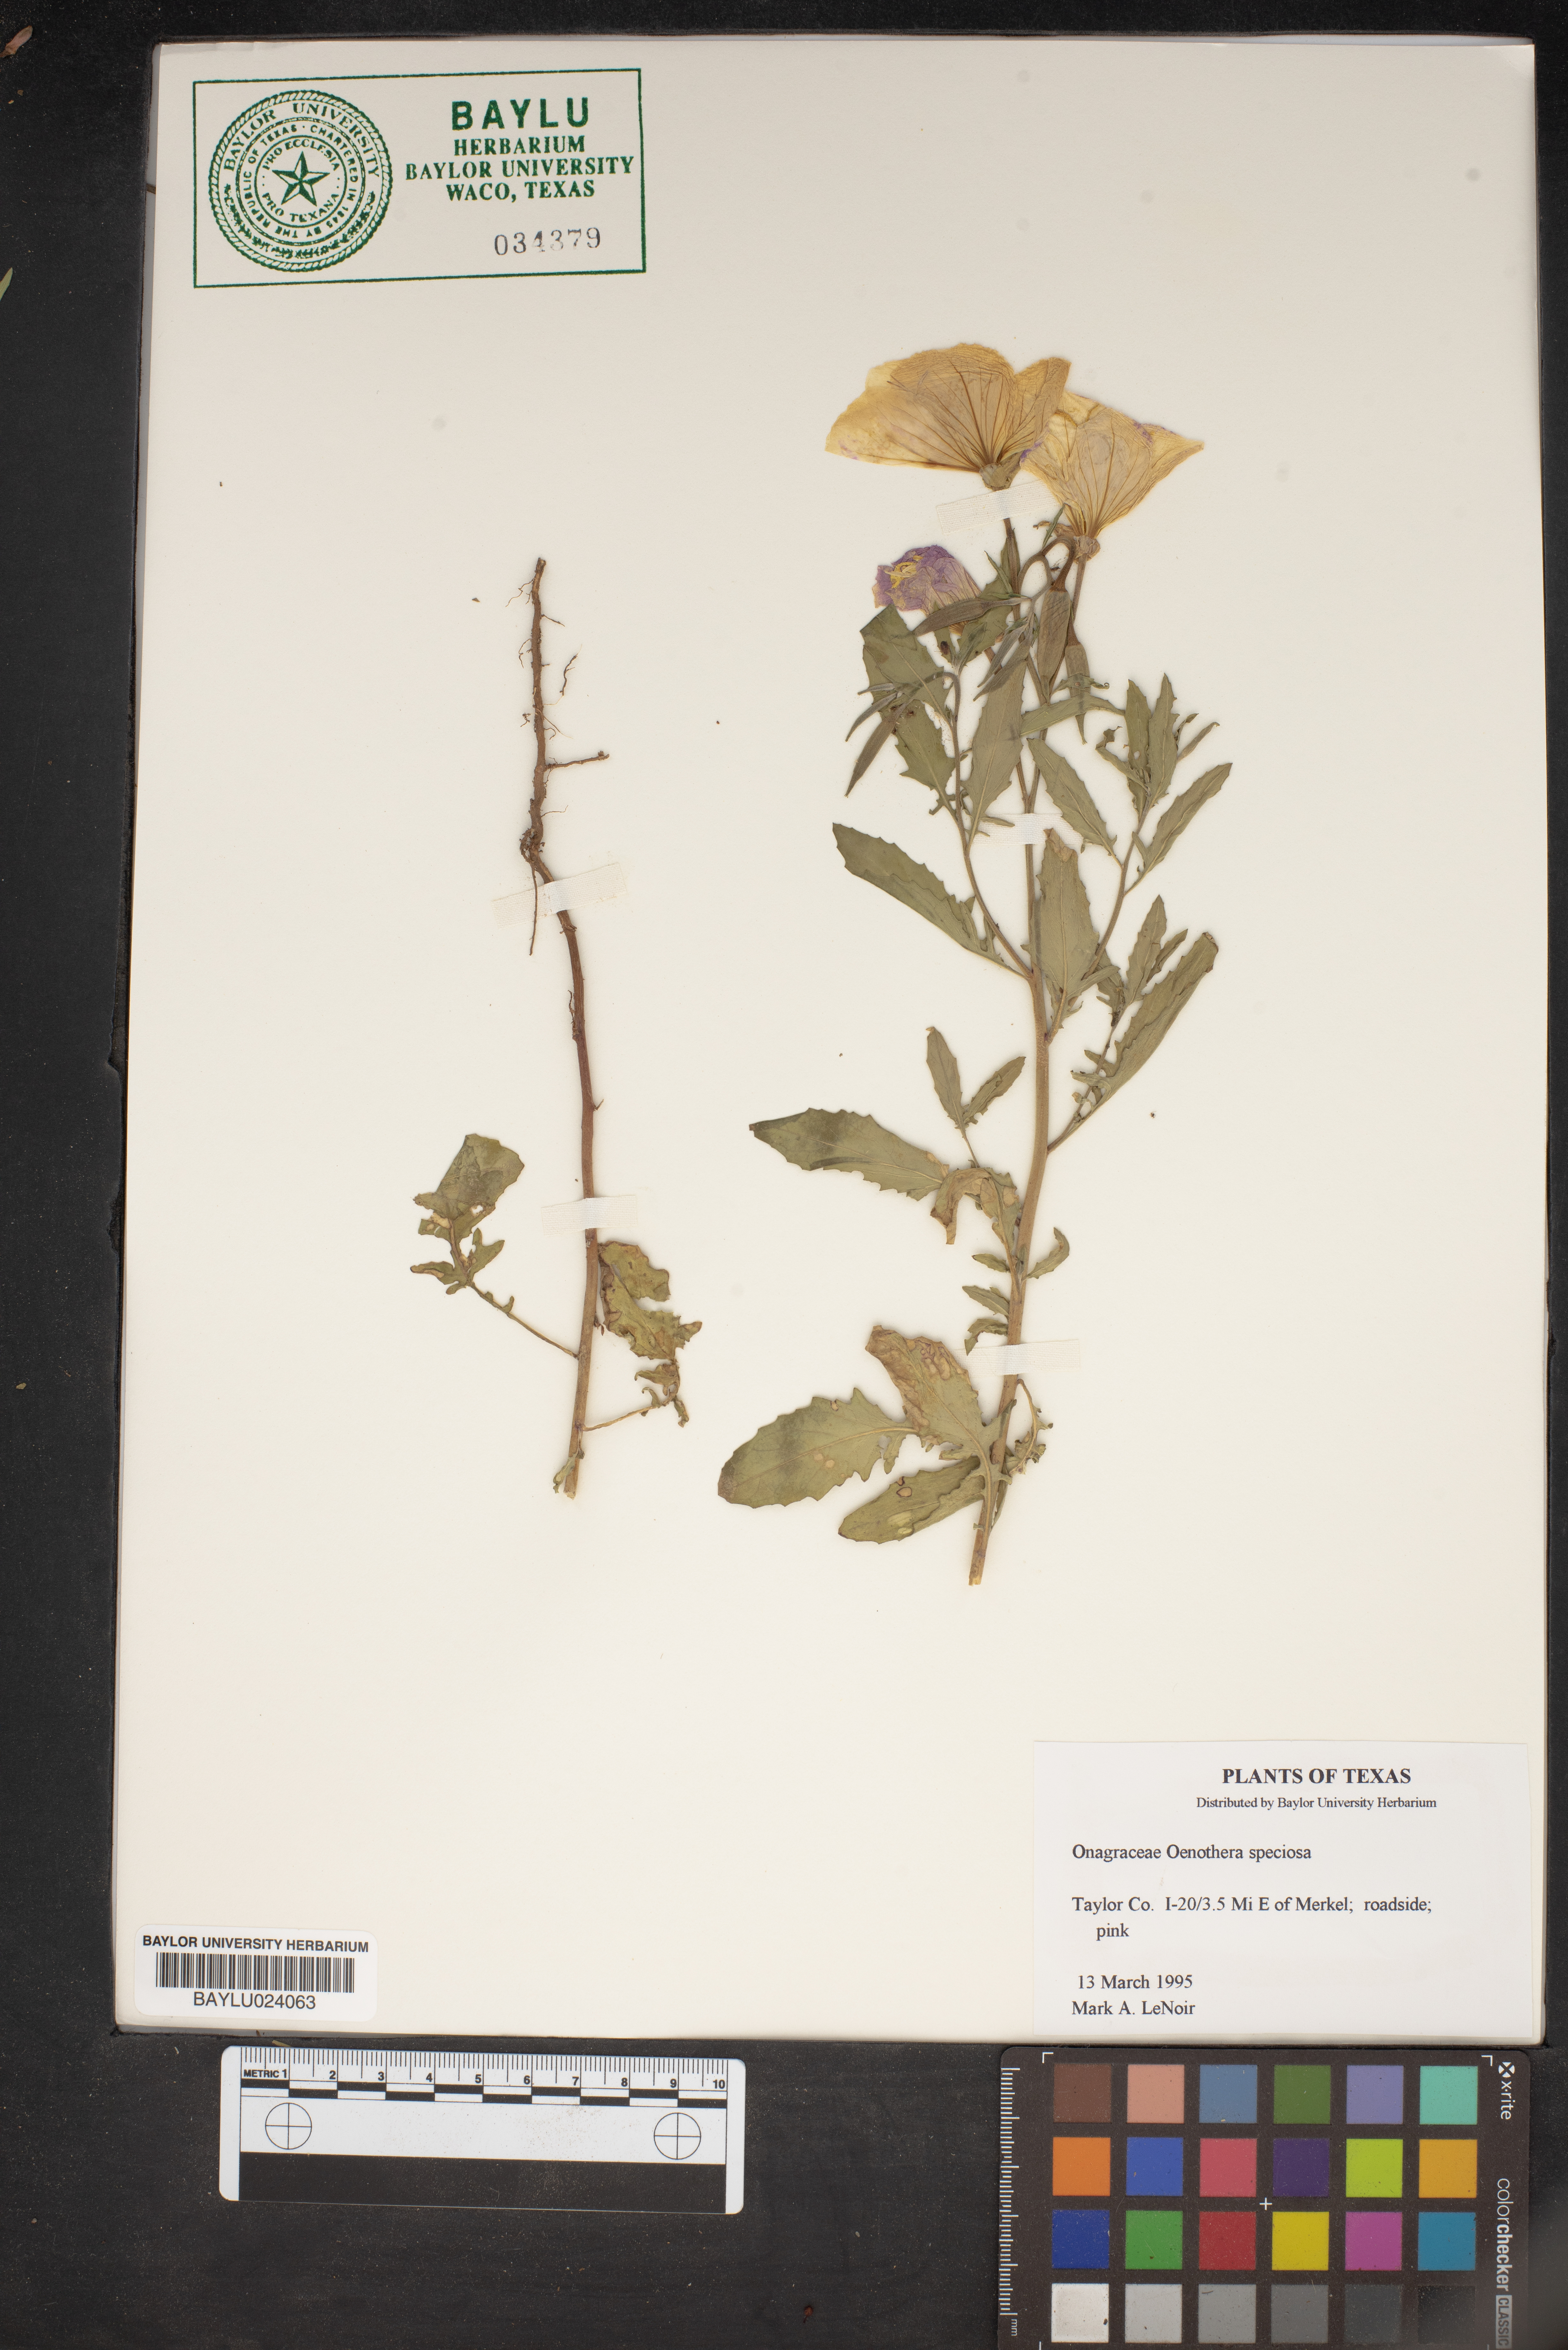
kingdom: Plantae
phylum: Tracheophyta
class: Magnoliopsida
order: Myrtales
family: Onagraceae
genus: Oenothera
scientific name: Oenothera speciosa
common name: White evening-primrose
